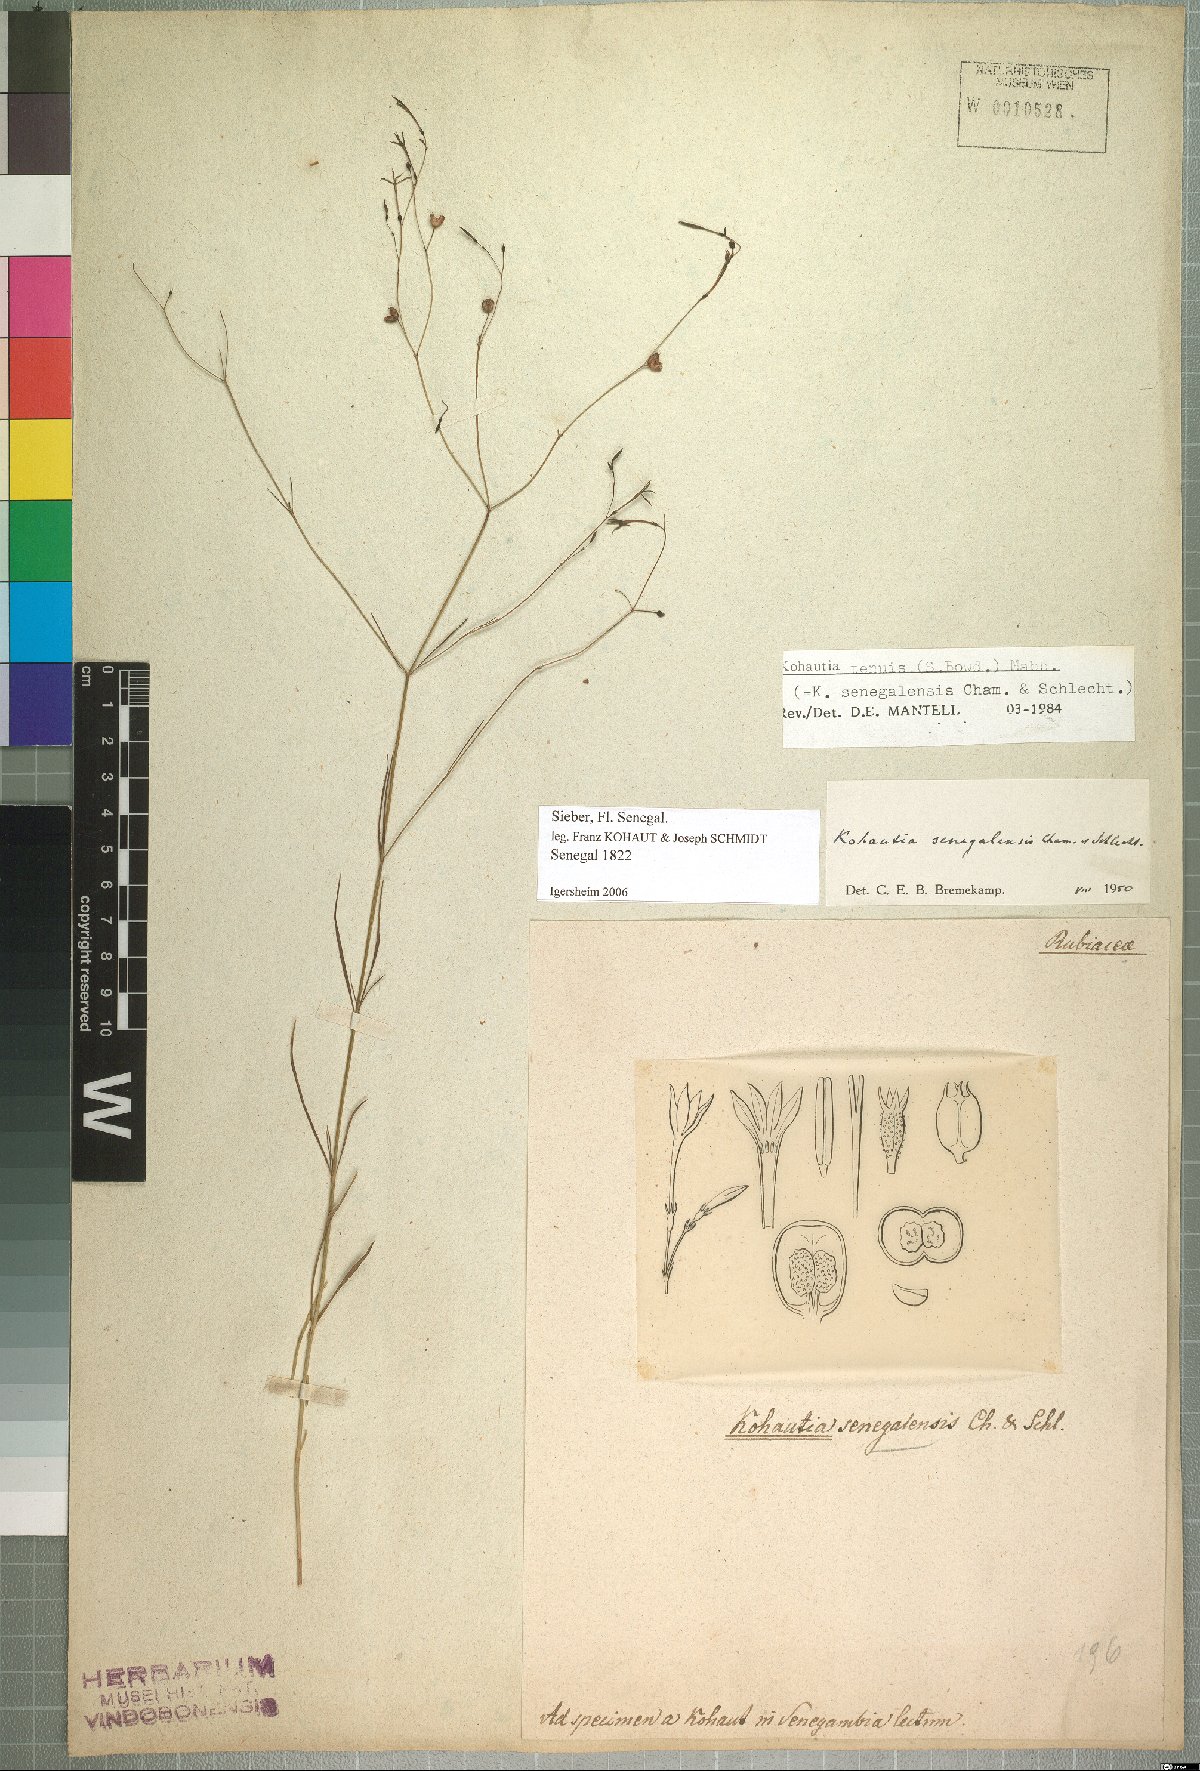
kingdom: Plantae
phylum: Tracheophyta
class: Magnoliopsida
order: Gentianales
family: Rubiaceae
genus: Kohautia
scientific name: Kohautia tenuis
